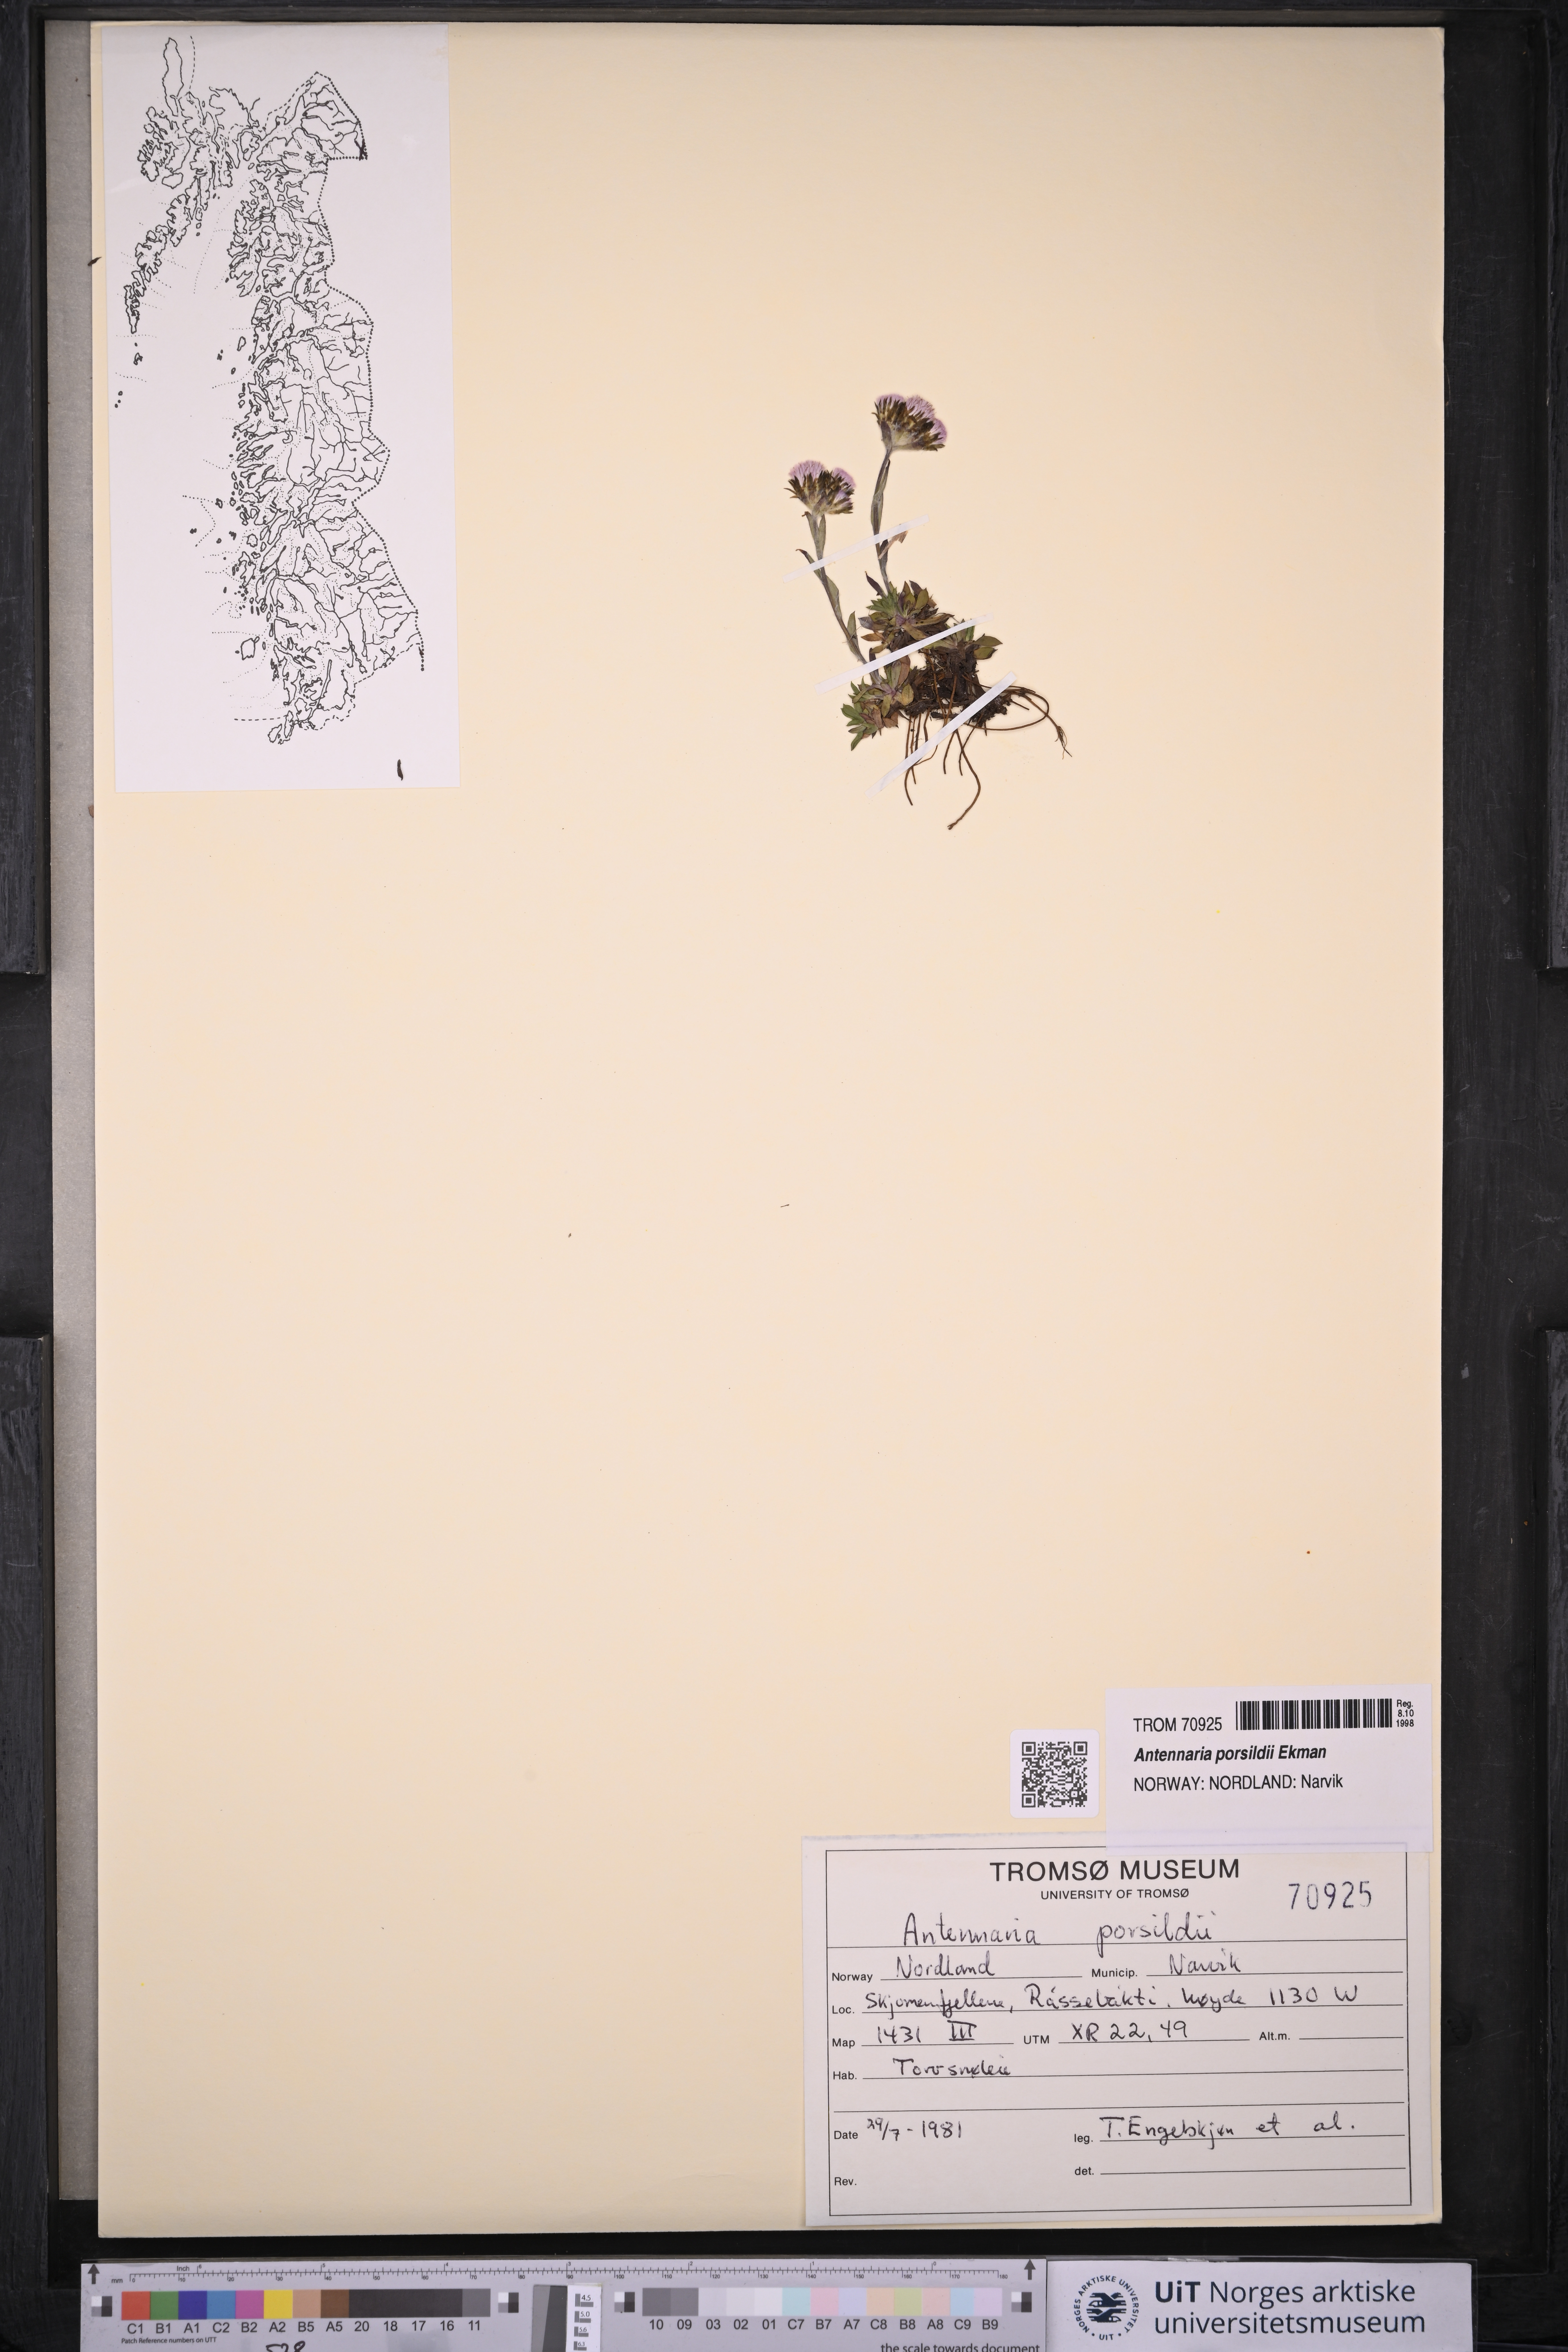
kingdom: Plantae
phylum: Tracheophyta
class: Magnoliopsida
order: Asterales
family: Asteraceae
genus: Antennaria
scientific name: Antennaria porsildii
